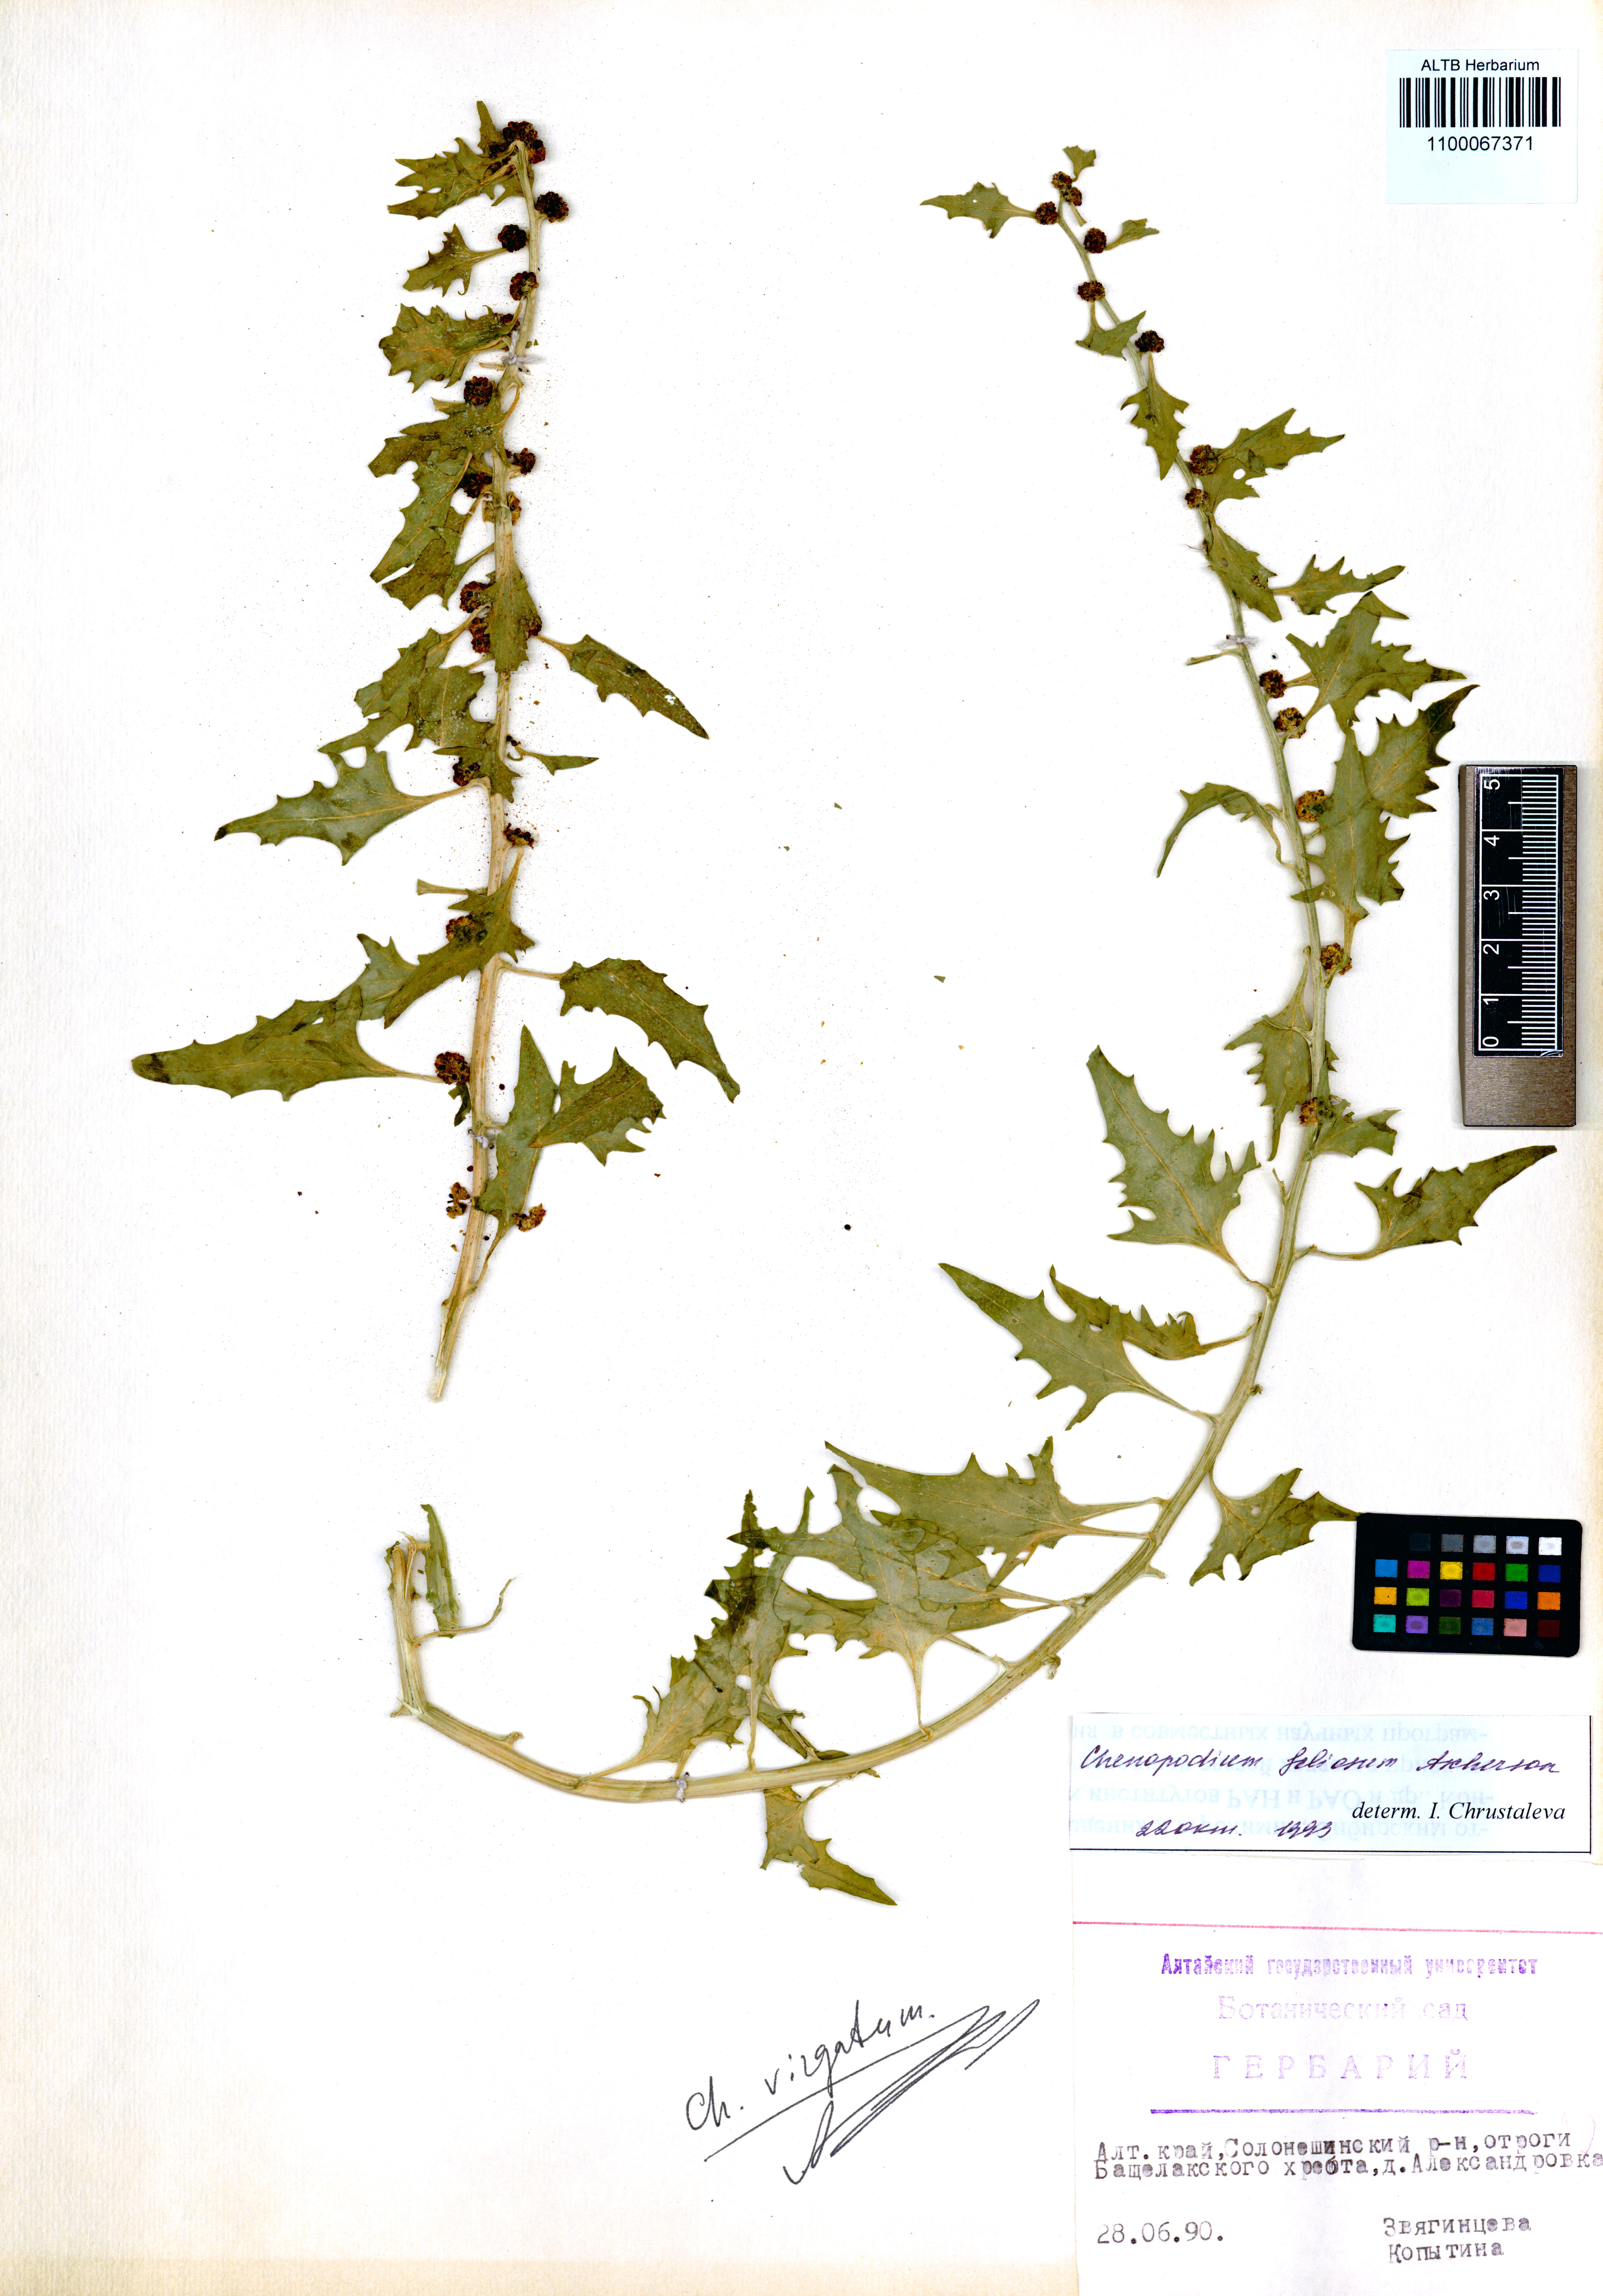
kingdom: Plantae
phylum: Tracheophyta
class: Magnoliopsida
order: Caryophyllales
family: Amaranthaceae
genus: Blitum
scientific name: Blitum virgatum
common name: Strawberry goosefoot
